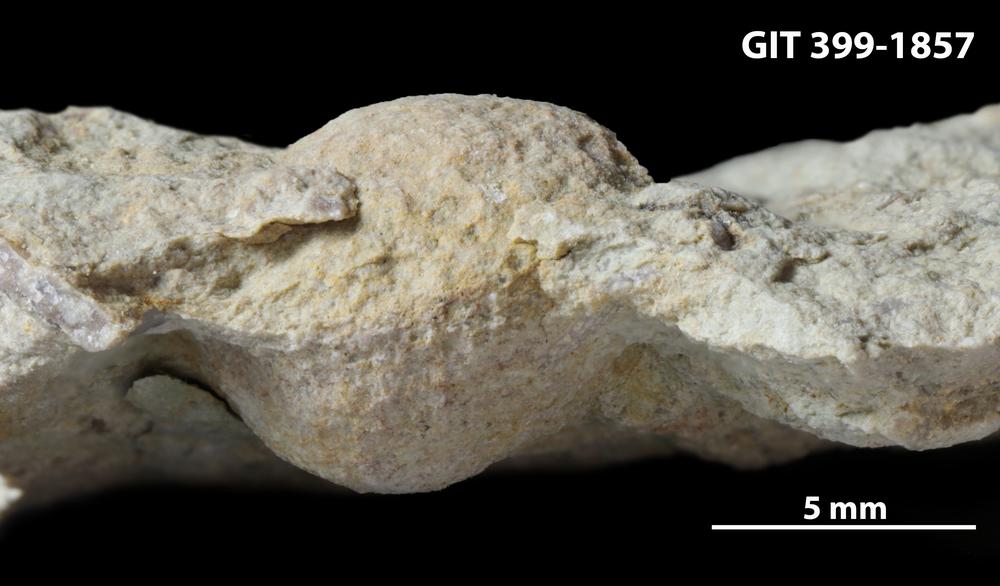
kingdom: Plantae
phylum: Chlorophyta
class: Ulvophyceae
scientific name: Ulvophyceae
